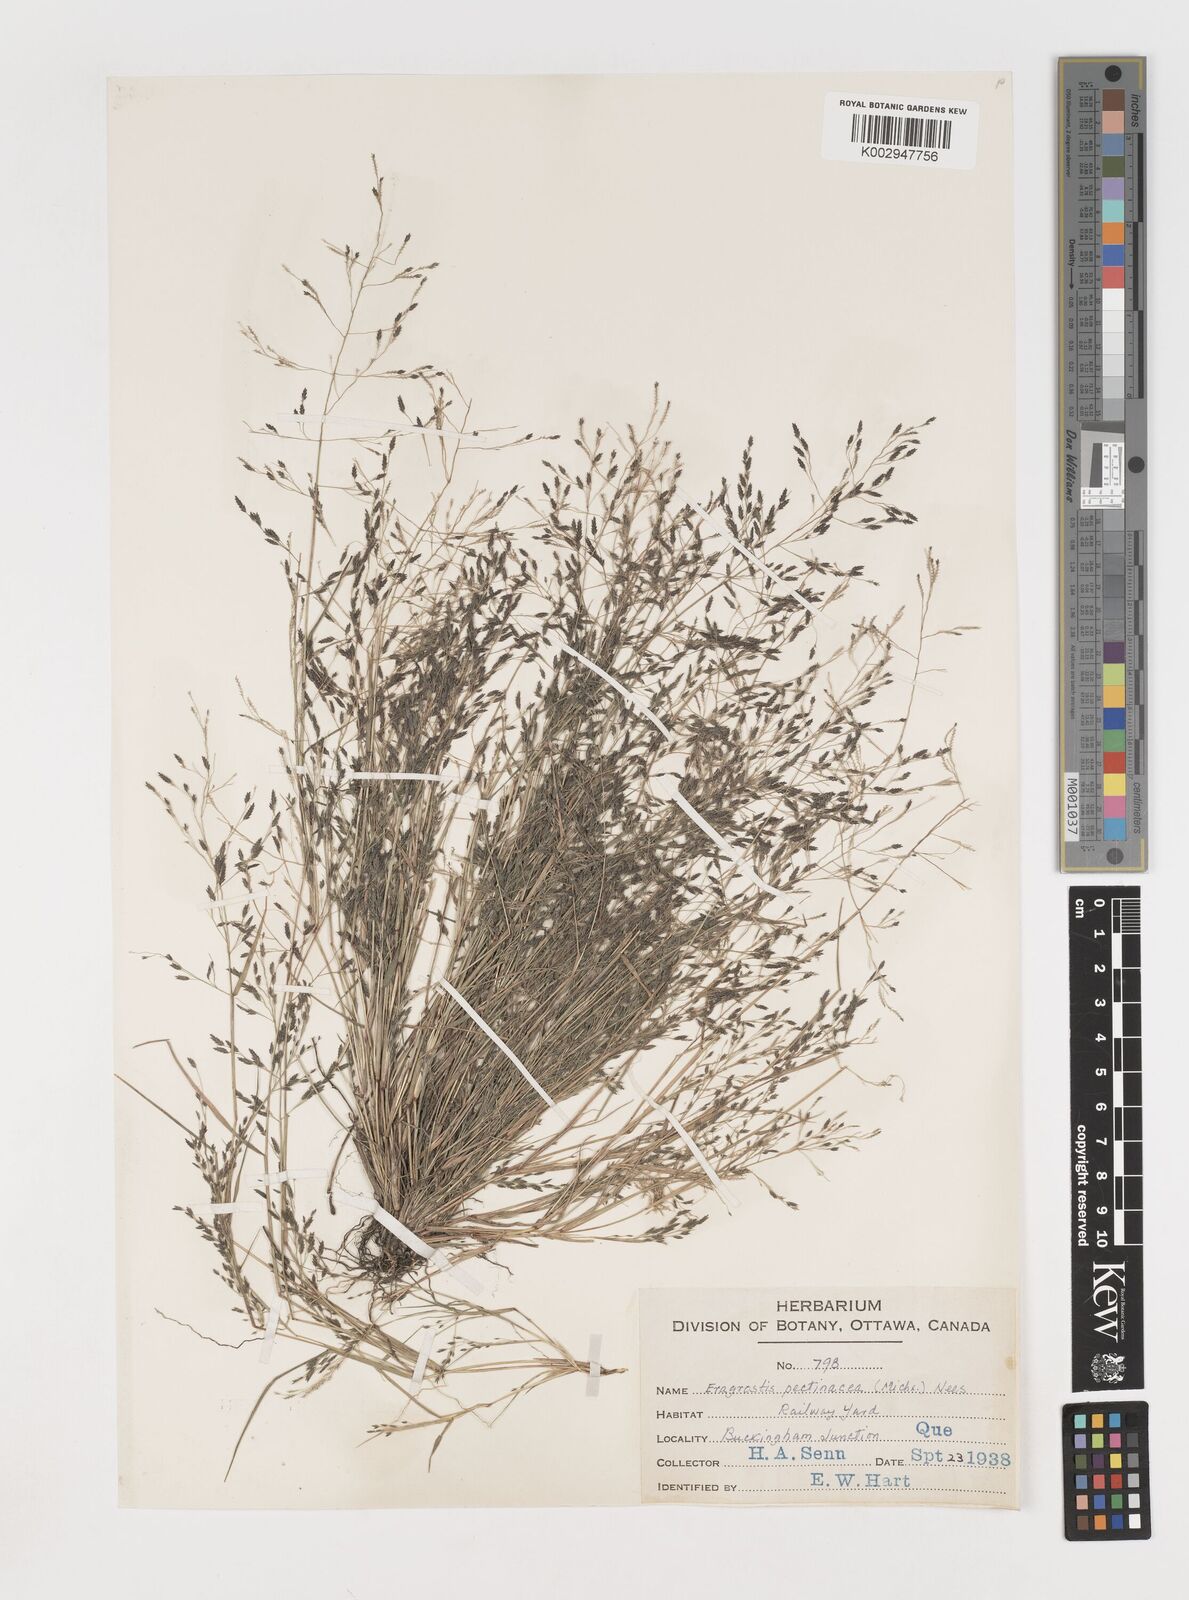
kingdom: Plantae
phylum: Tracheophyta
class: Liliopsida
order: Poales
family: Poaceae
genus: Eragrostis
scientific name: Eragrostis pectinacea
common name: Tufted lovegrass
